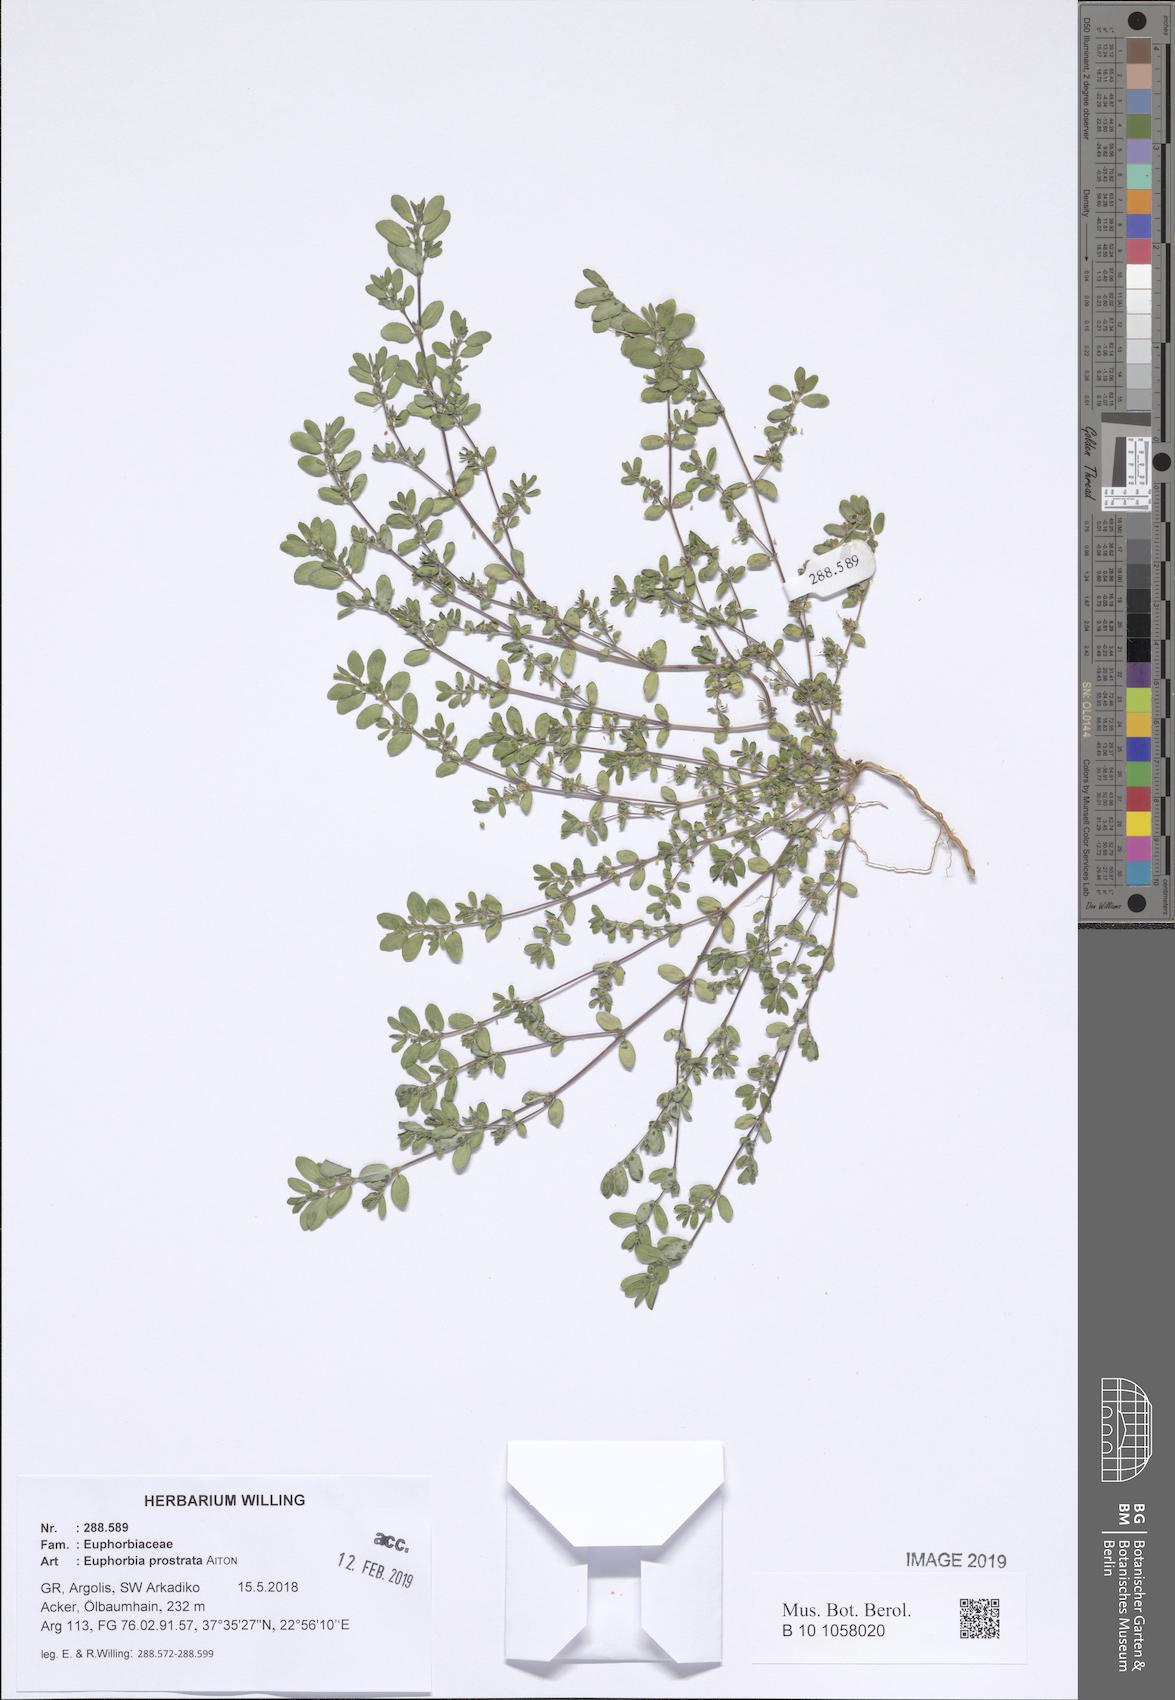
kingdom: Plantae
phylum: Tracheophyta
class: Magnoliopsida
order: Malpighiales
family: Euphorbiaceae
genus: Euphorbia
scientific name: Euphorbia prostrata
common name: Prostrate sandmat
